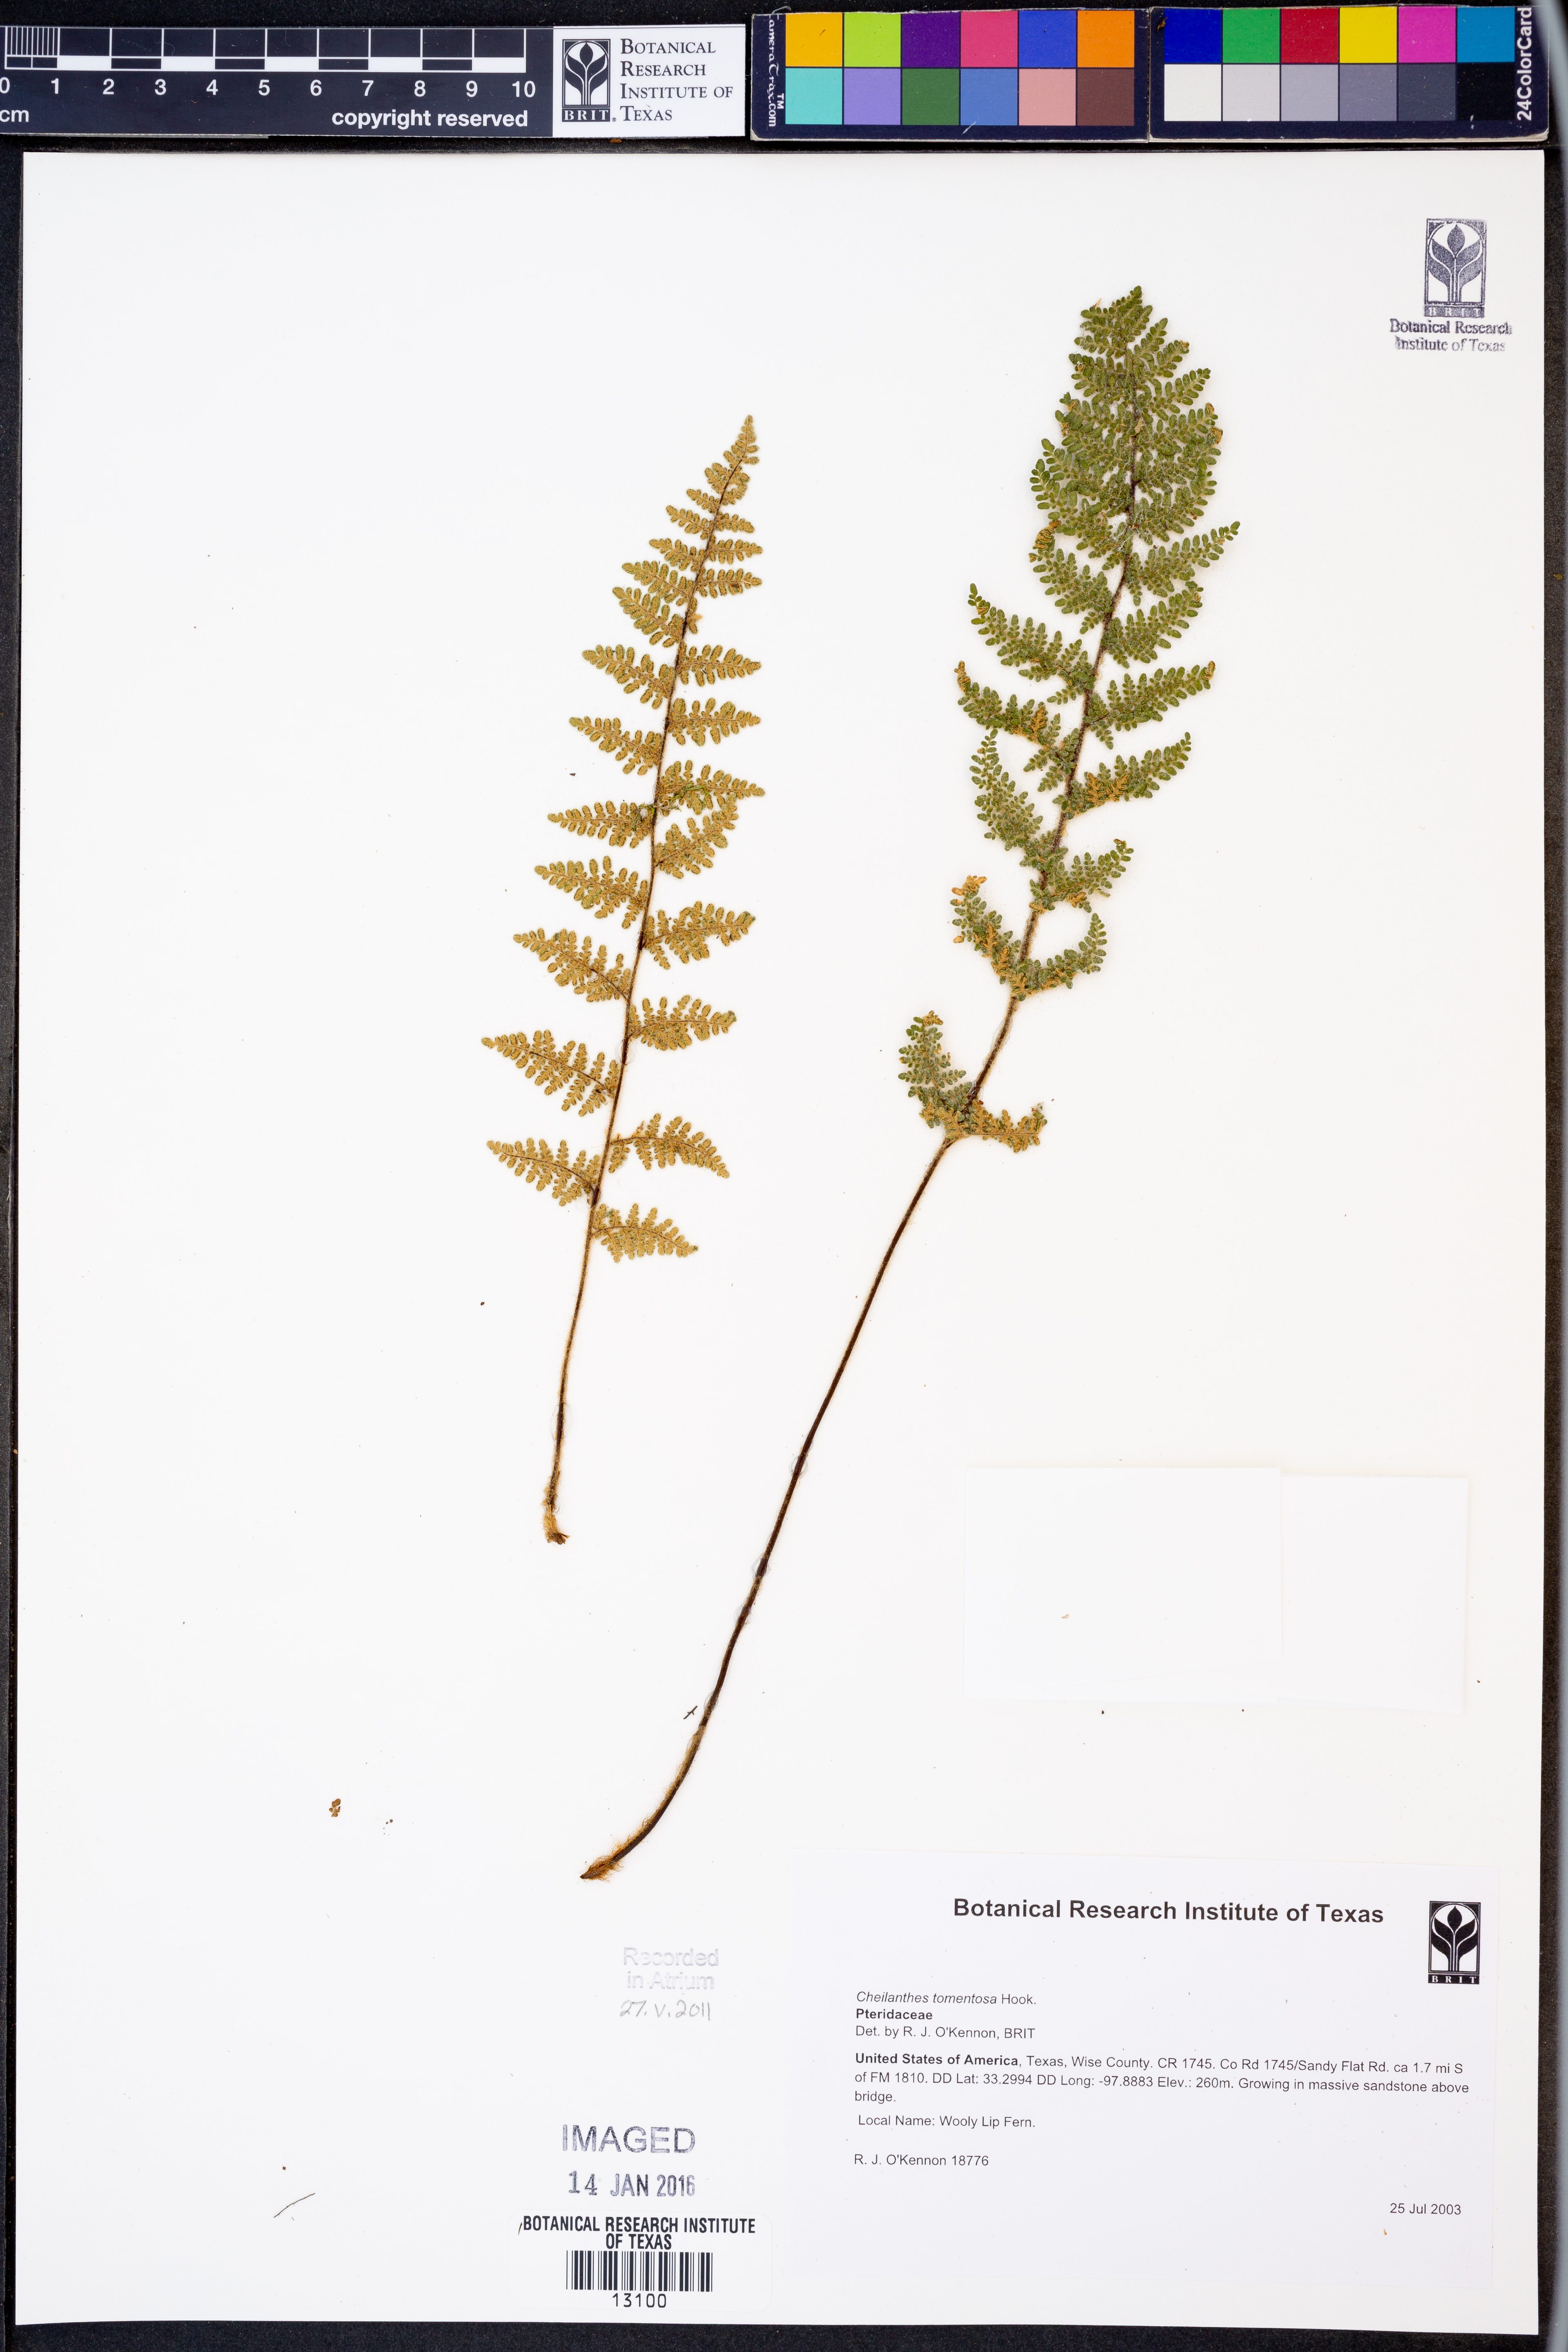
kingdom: Plantae
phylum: Tracheophyta
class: Polypodiopsida
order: Polypodiales
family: Pteridaceae
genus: Myriopteris
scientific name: Myriopteris tomentosa
